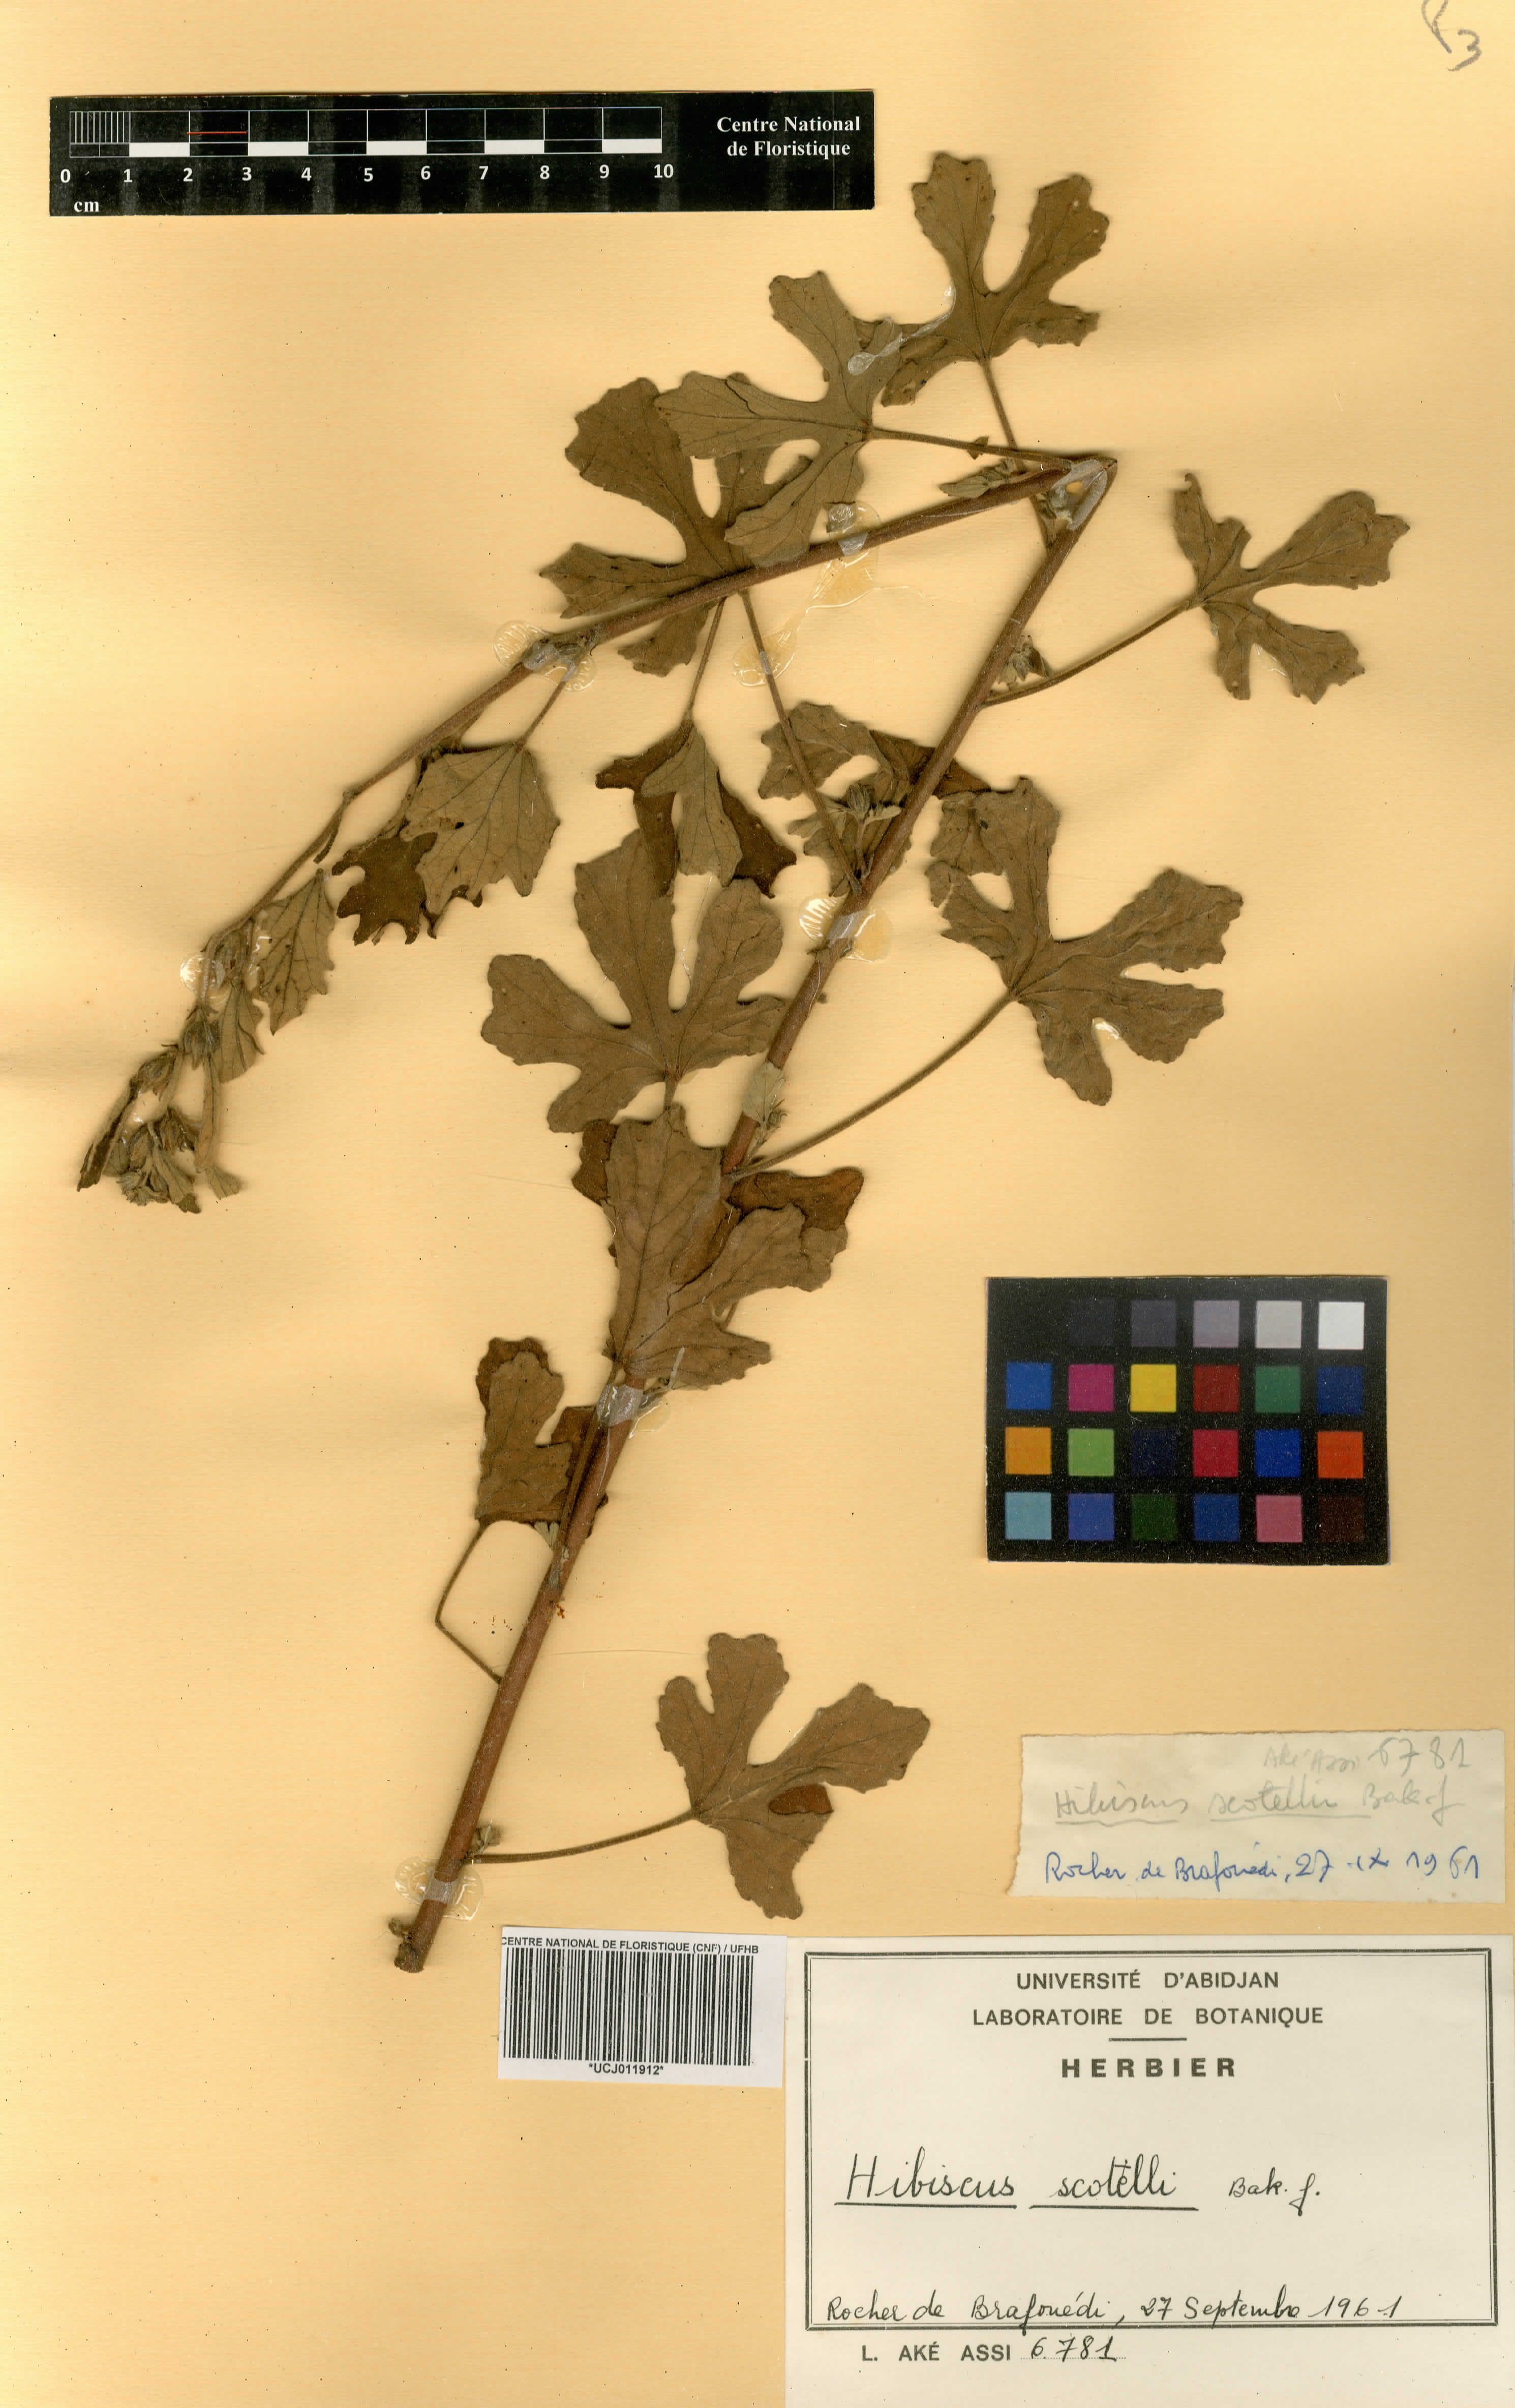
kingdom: Plantae
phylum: Tracheophyta
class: Magnoliopsida
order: Malvales
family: Malvaceae
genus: Hibiscus
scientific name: Hibiscus scotellii
